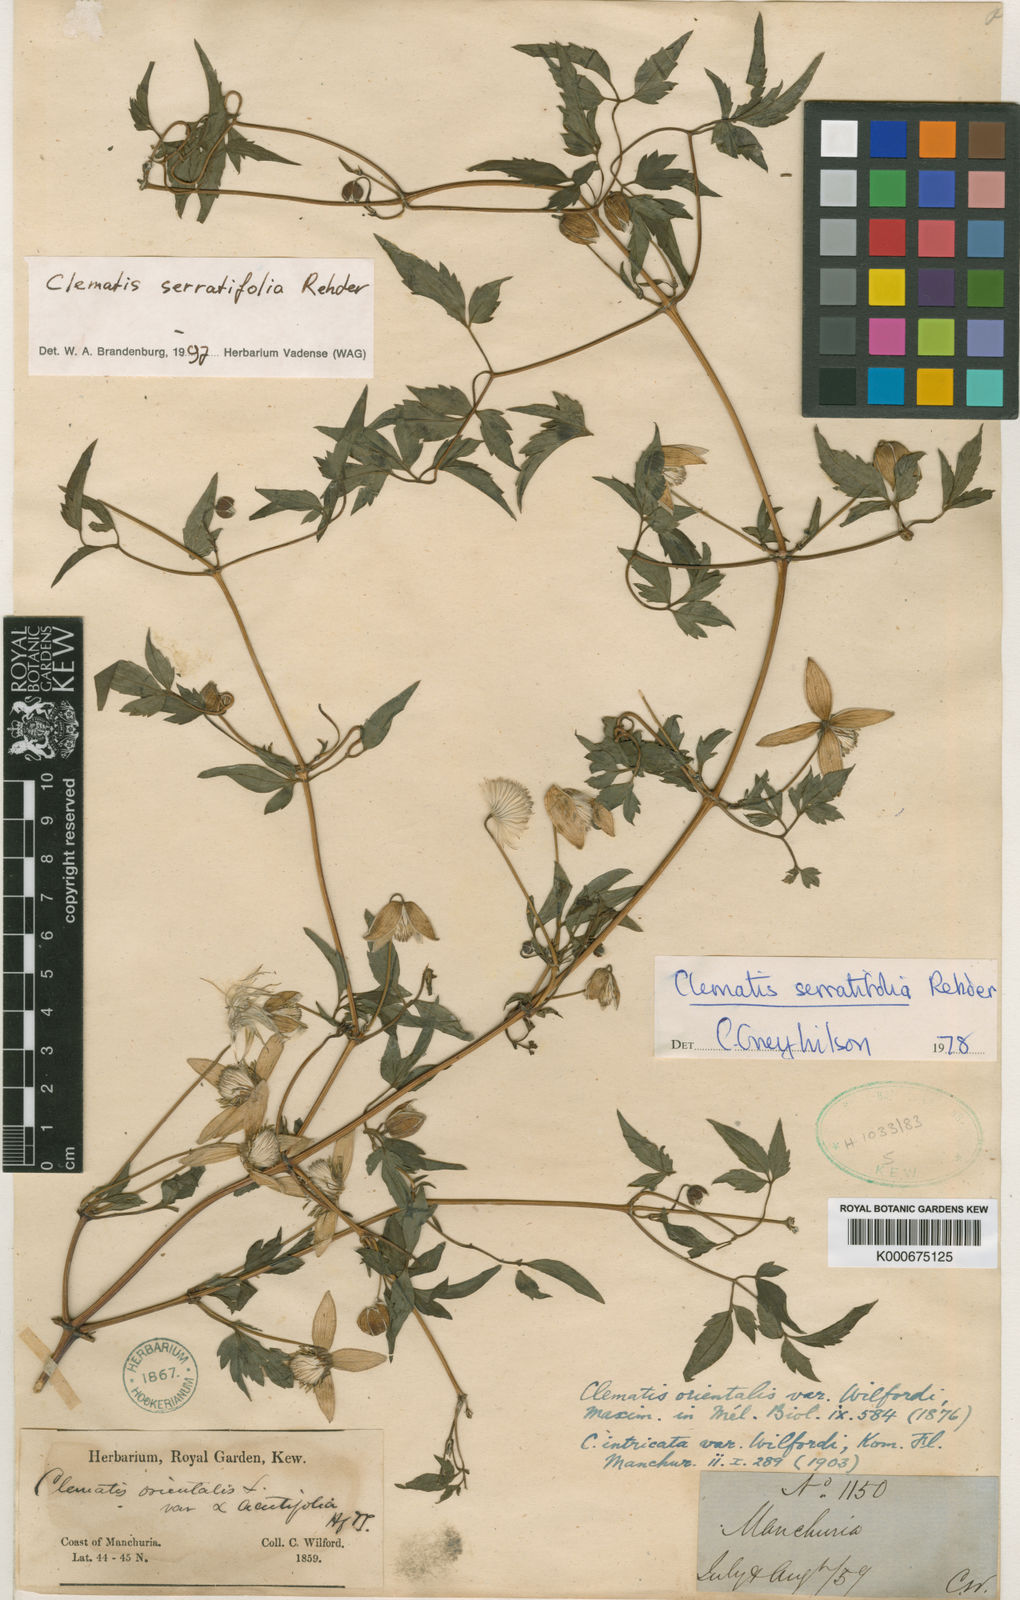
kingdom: Plantae
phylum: Tracheophyta
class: Magnoliopsida
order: Ranunculales
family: Ranunculaceae
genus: Clematis
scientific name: Clematis serratifolia
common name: Korean clematis
